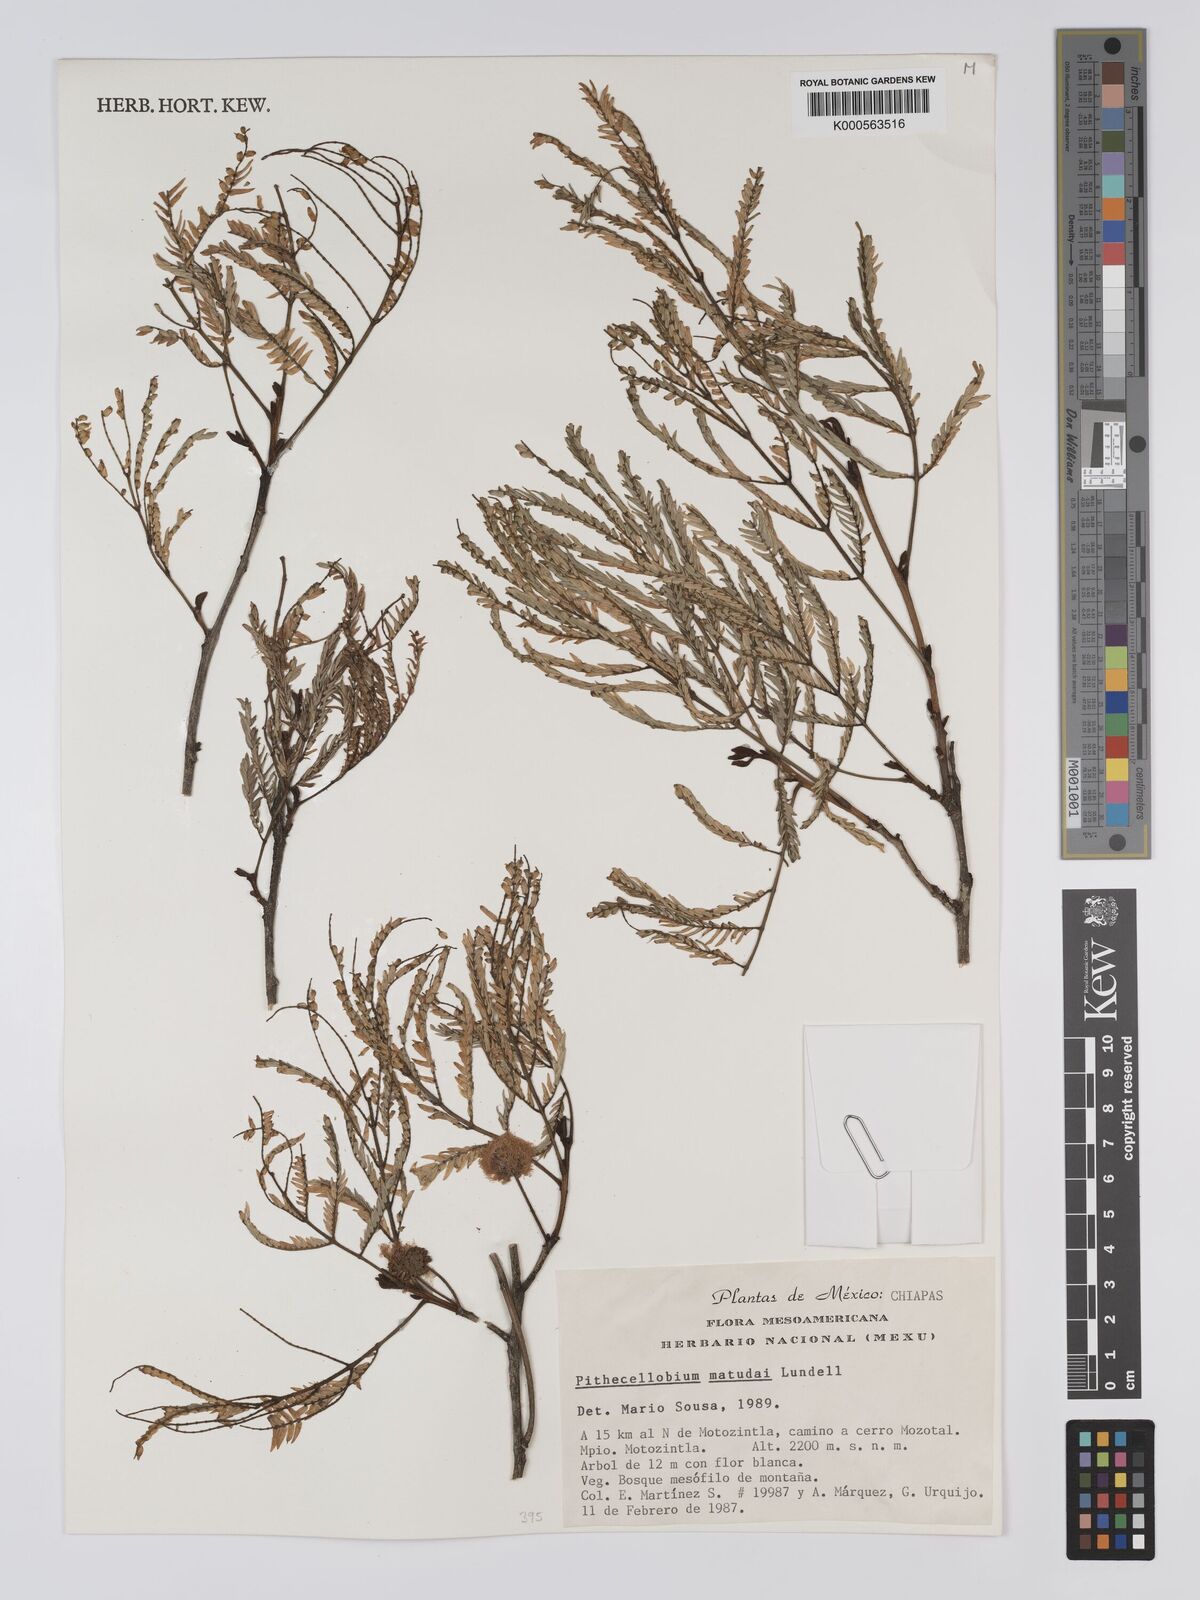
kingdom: Plantae
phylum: Tracheophyta
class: Magnoliopsida
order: Fabales
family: Fabaceae
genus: Cojoba
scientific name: Cojoba arborea
